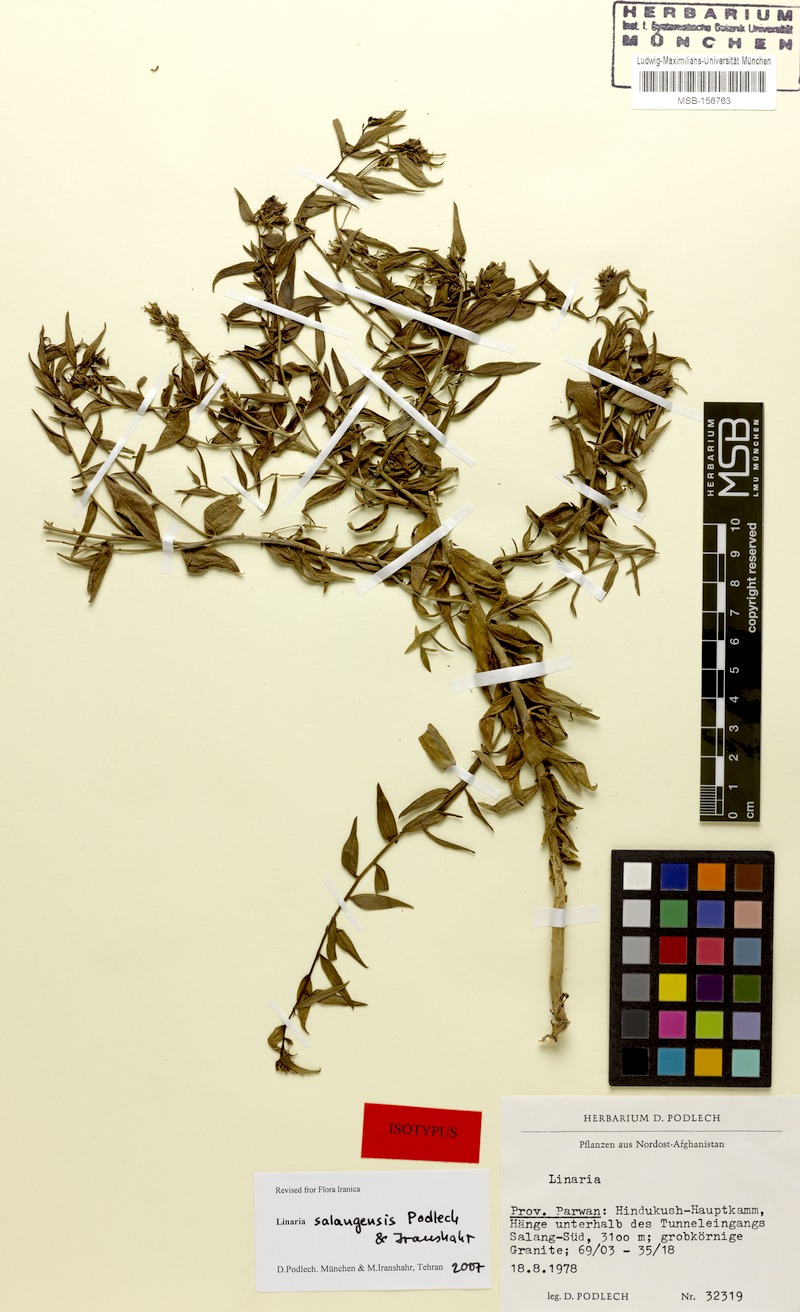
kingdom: Plantae
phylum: Tracheophyta
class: Magnoliopsida
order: Lamiales
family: Plantaginaceae
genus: Linaria
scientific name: Linaria salangensis
